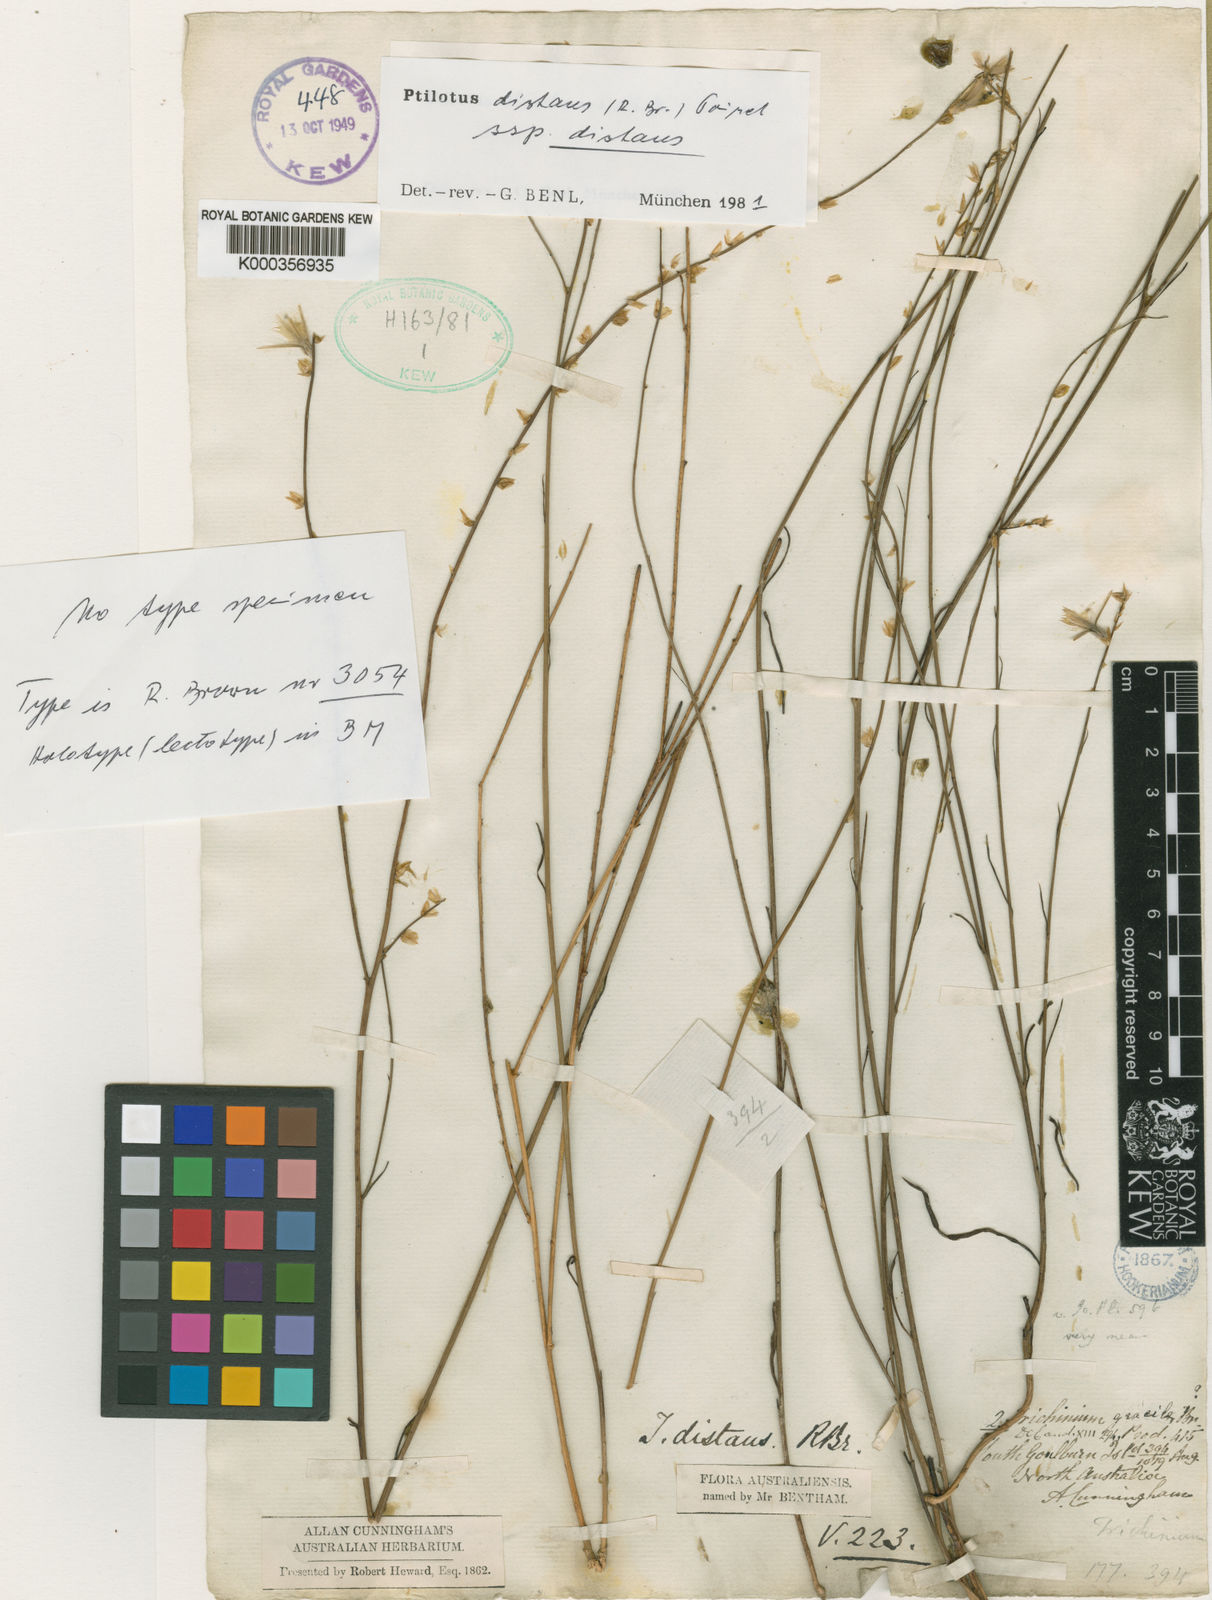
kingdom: Plantae
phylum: Tracheophyta
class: Magnoliopsida
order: Caryophyllales
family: Amaranthaceae
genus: Ptilotus
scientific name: Ptilotus
